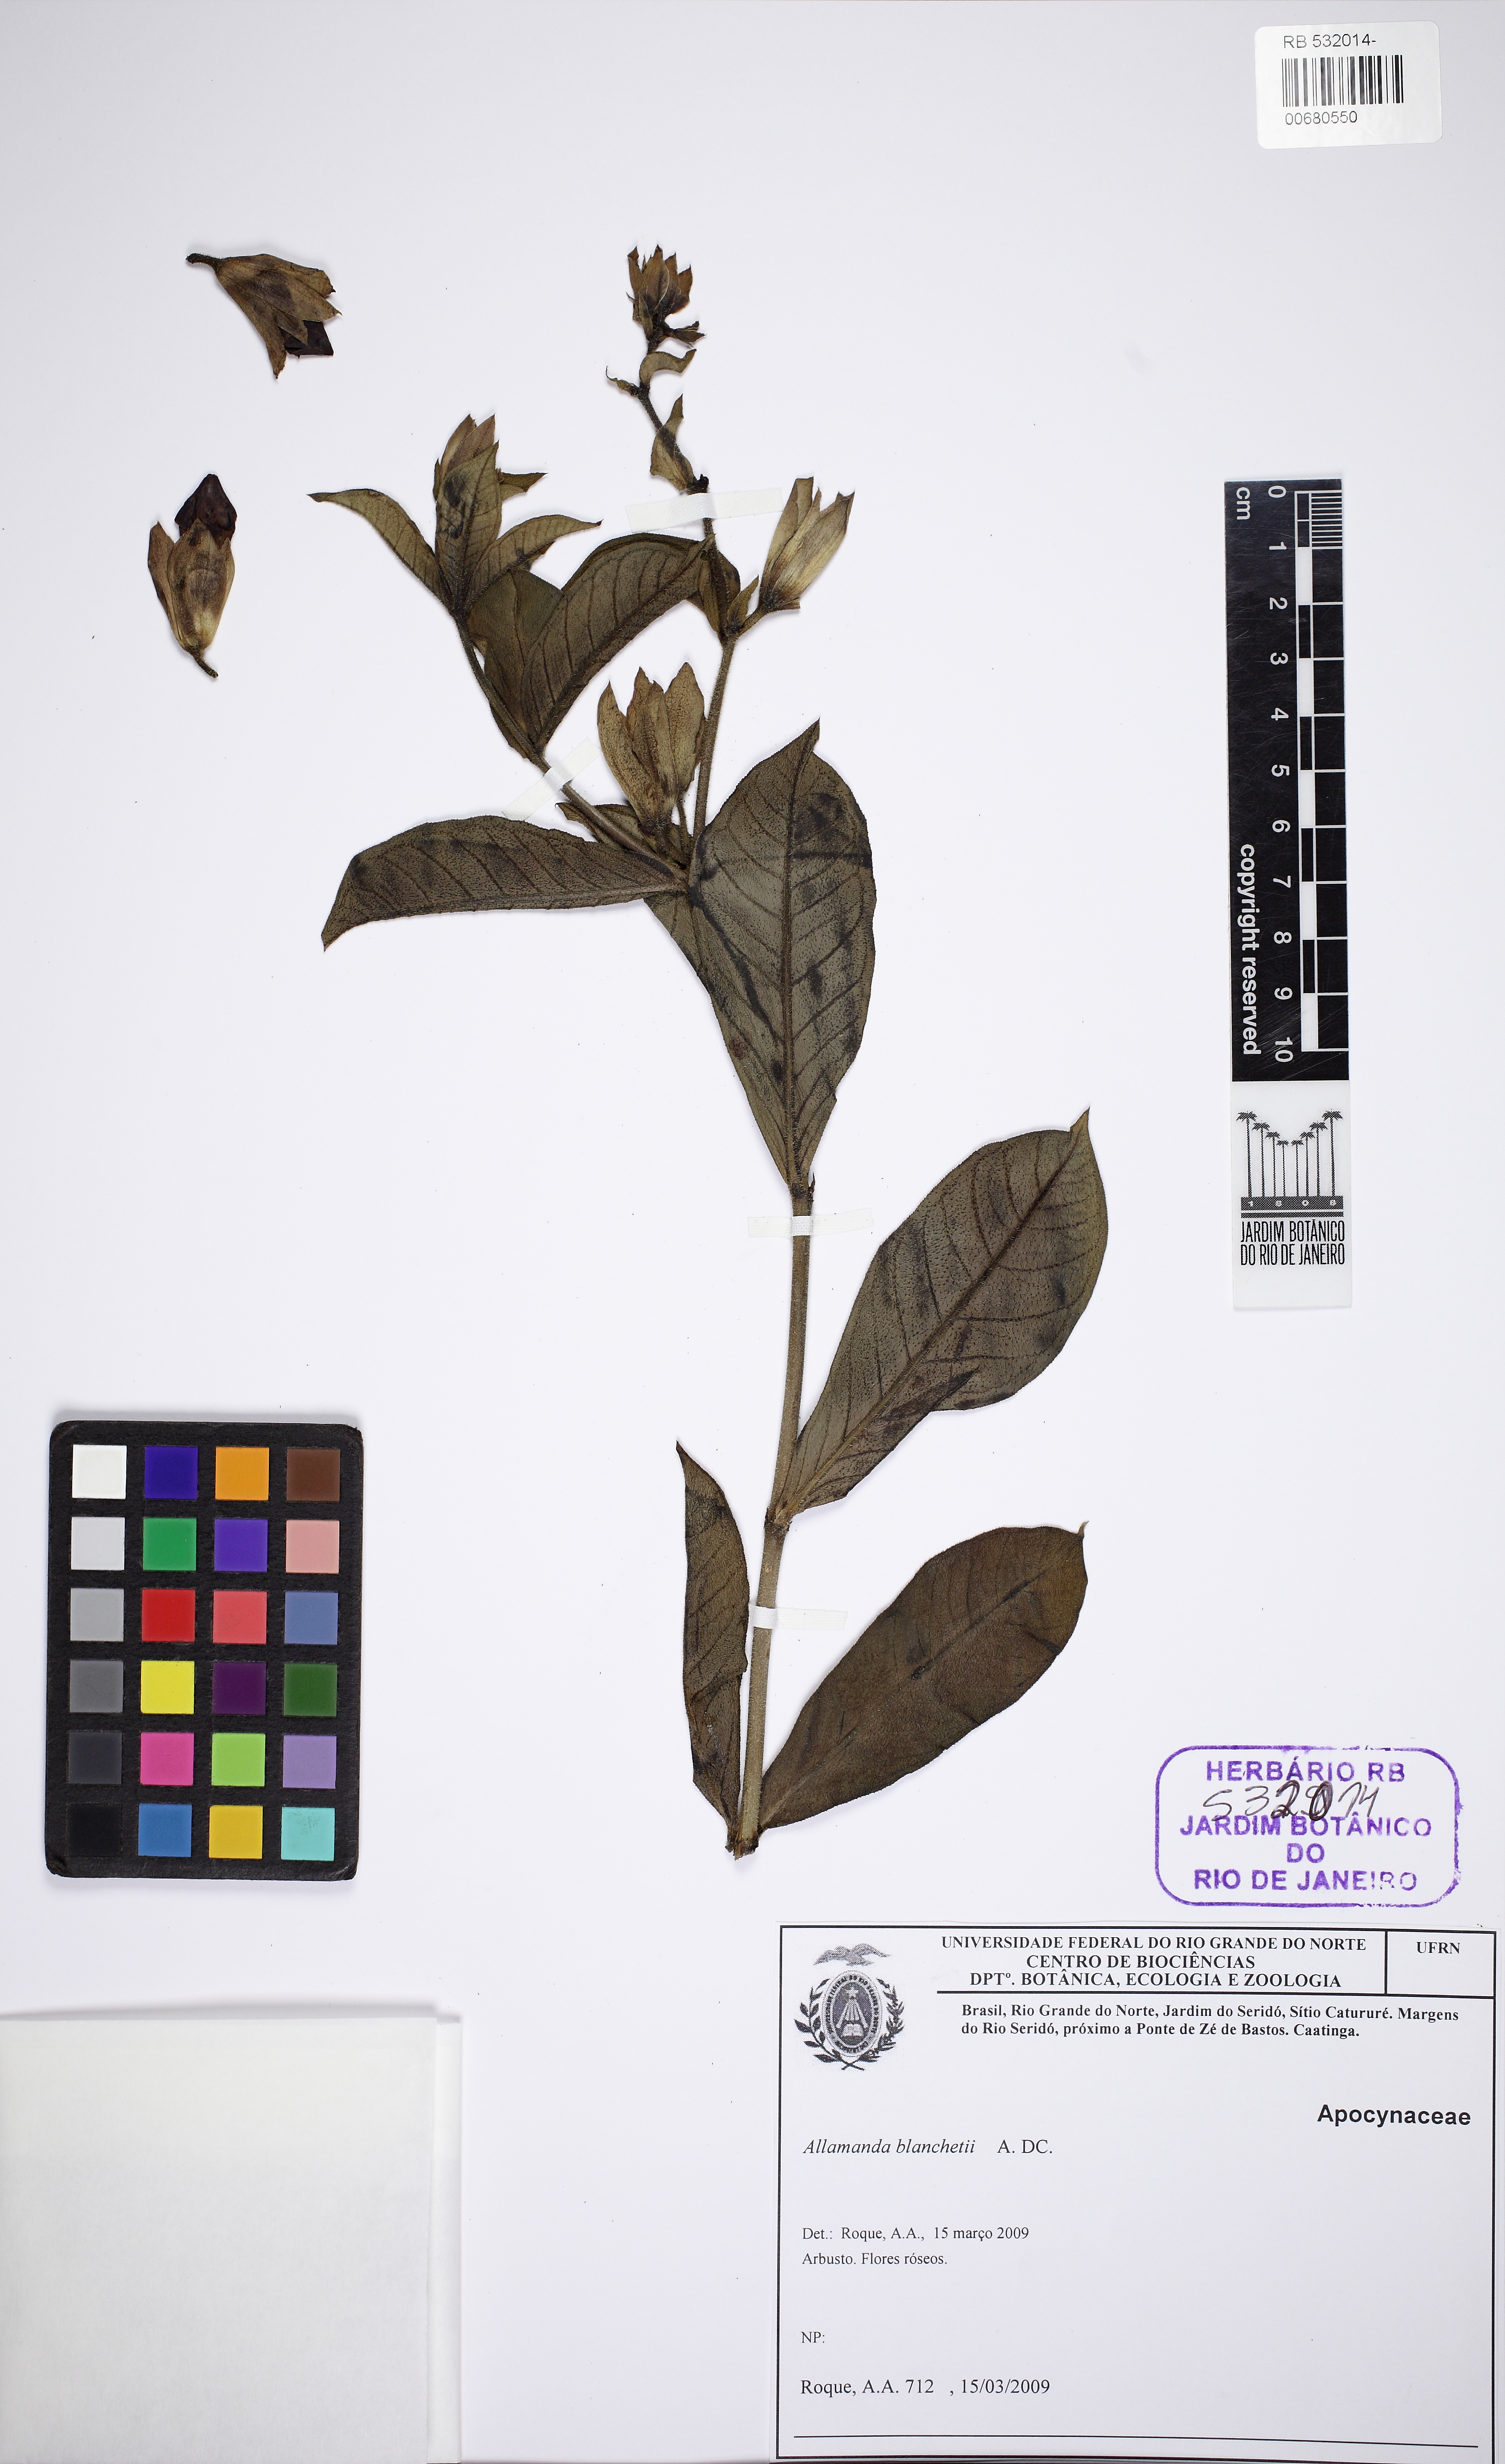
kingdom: Plantae
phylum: Tracheophyta
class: Magnoliopsida
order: Gentianales
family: Apocynaceae
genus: Allamanda
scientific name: Allamanda blanchetii
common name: Purple allamanda
